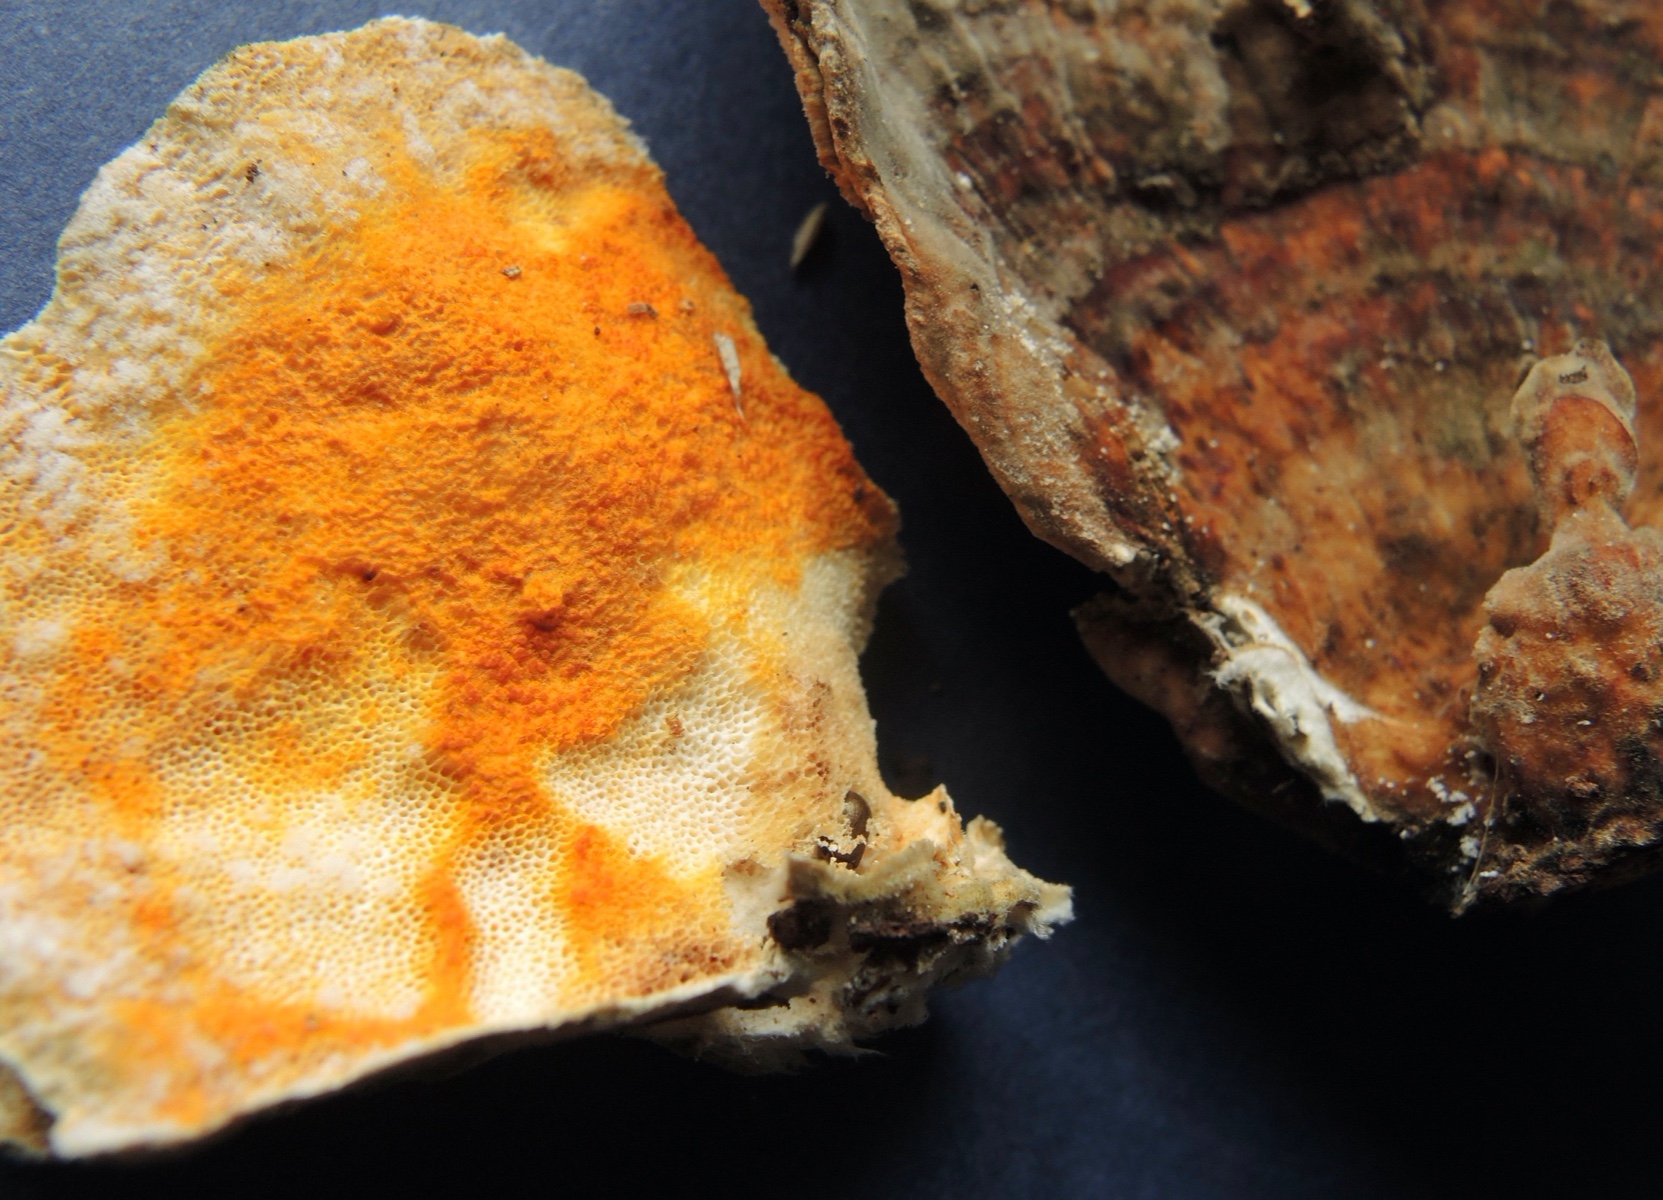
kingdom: Fungi
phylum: Ascomycota
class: Sordariomycetes
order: Hypocreales
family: Hypocreaceae
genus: Hypomyces
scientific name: Hypomyces aurantius
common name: almindelig snylteskorpe
